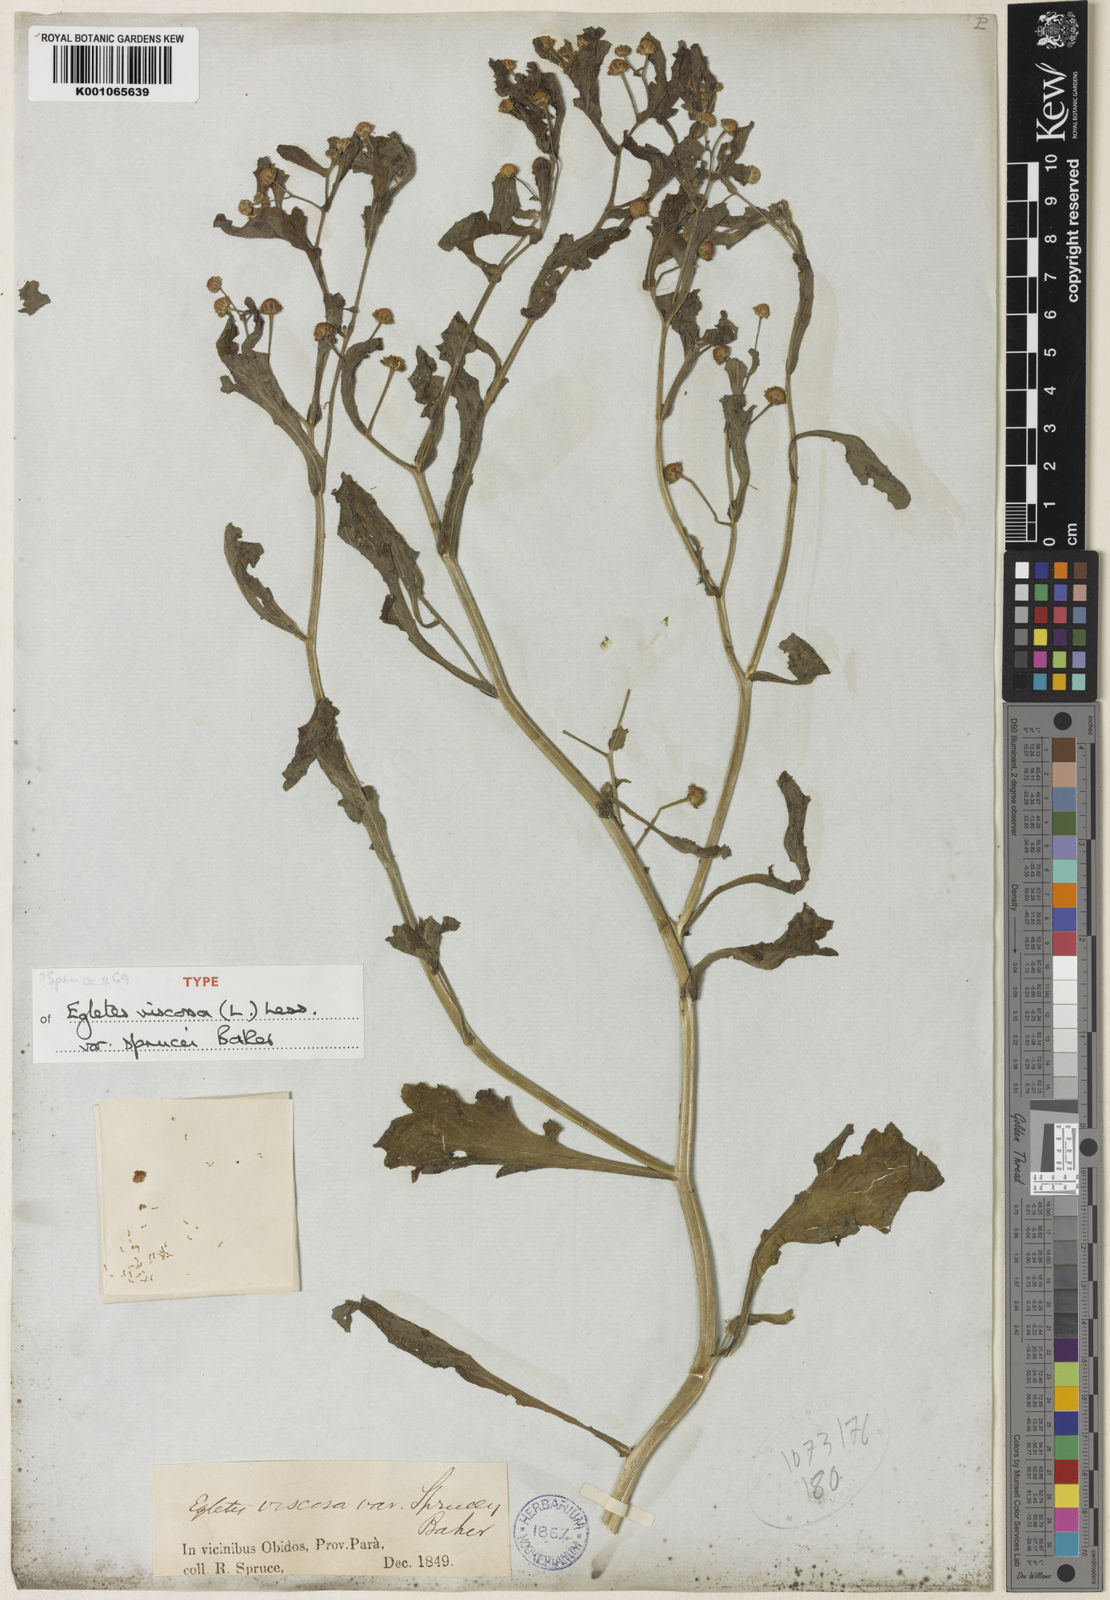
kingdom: Plantae
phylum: Tracheophyta
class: Magnoliopsida
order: Asterales
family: Asteraceae
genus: Egletes
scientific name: Egletes viscosa
